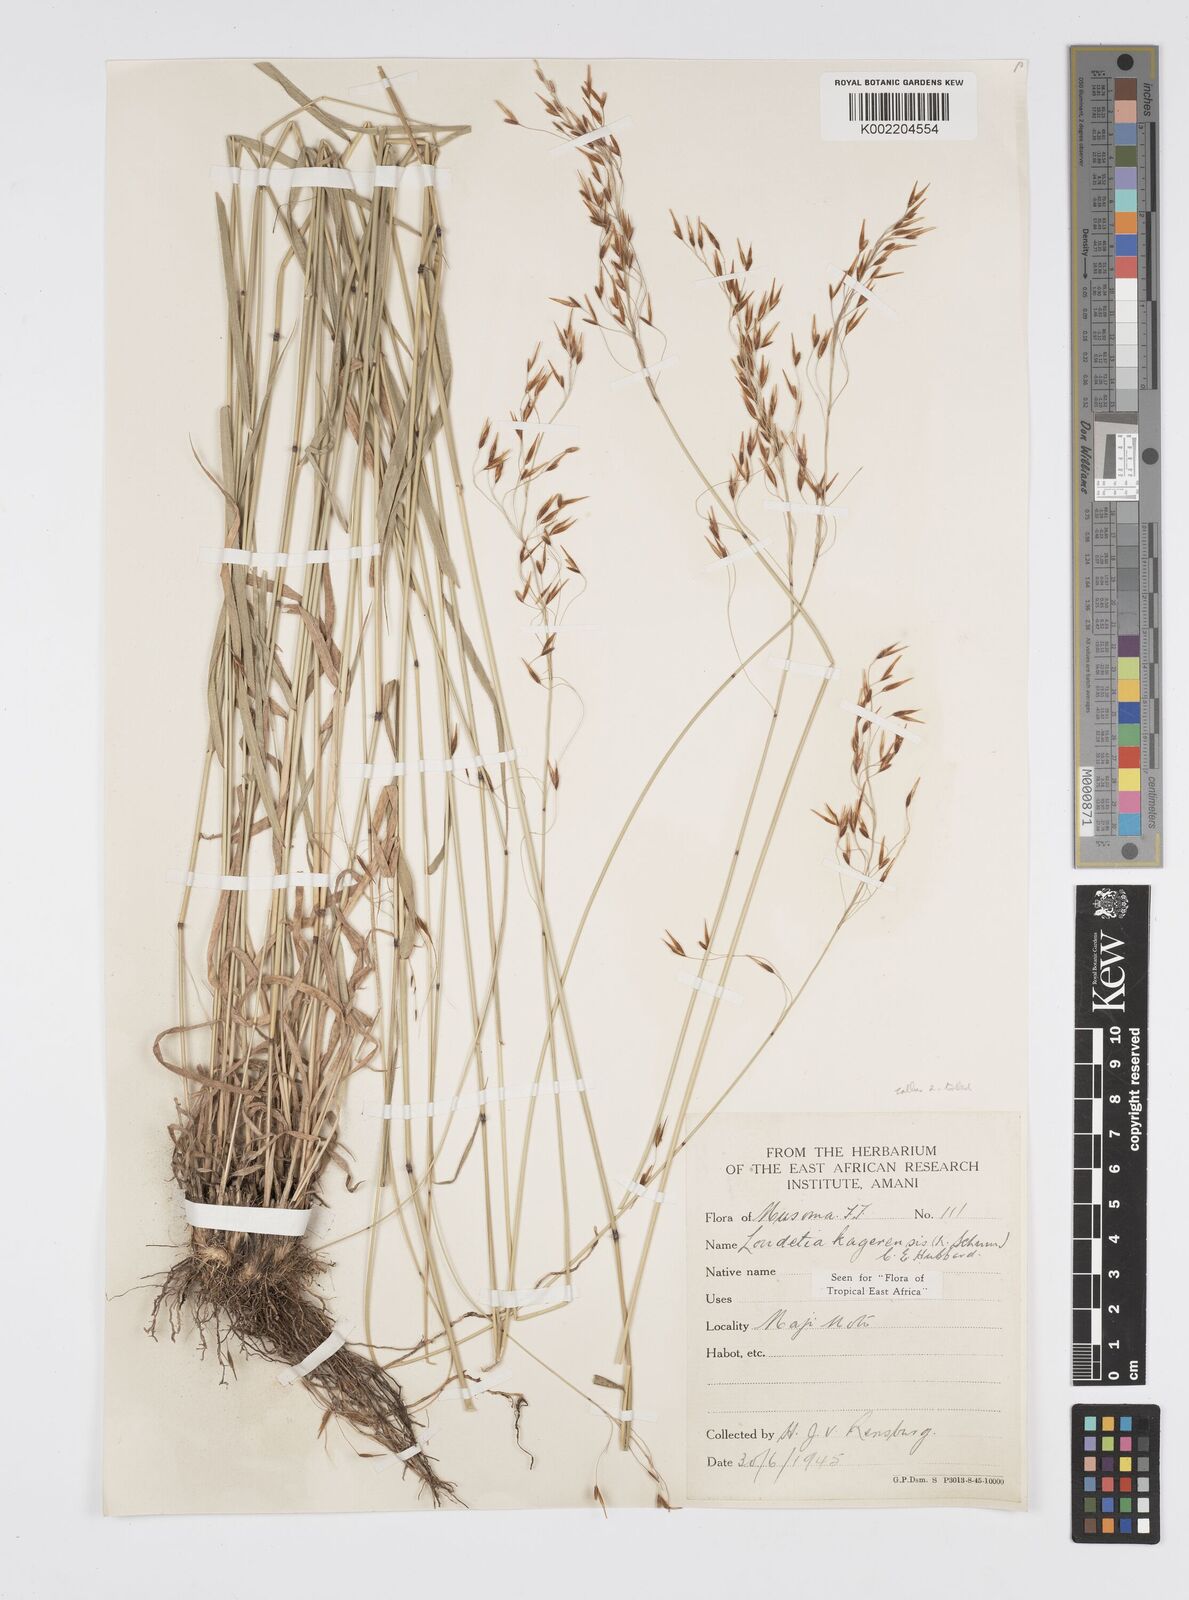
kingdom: Plantae
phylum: Tracheophyta
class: Liliopsida
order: Poales
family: Poaceae
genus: Loudetia
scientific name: Loudetia kagerensis
